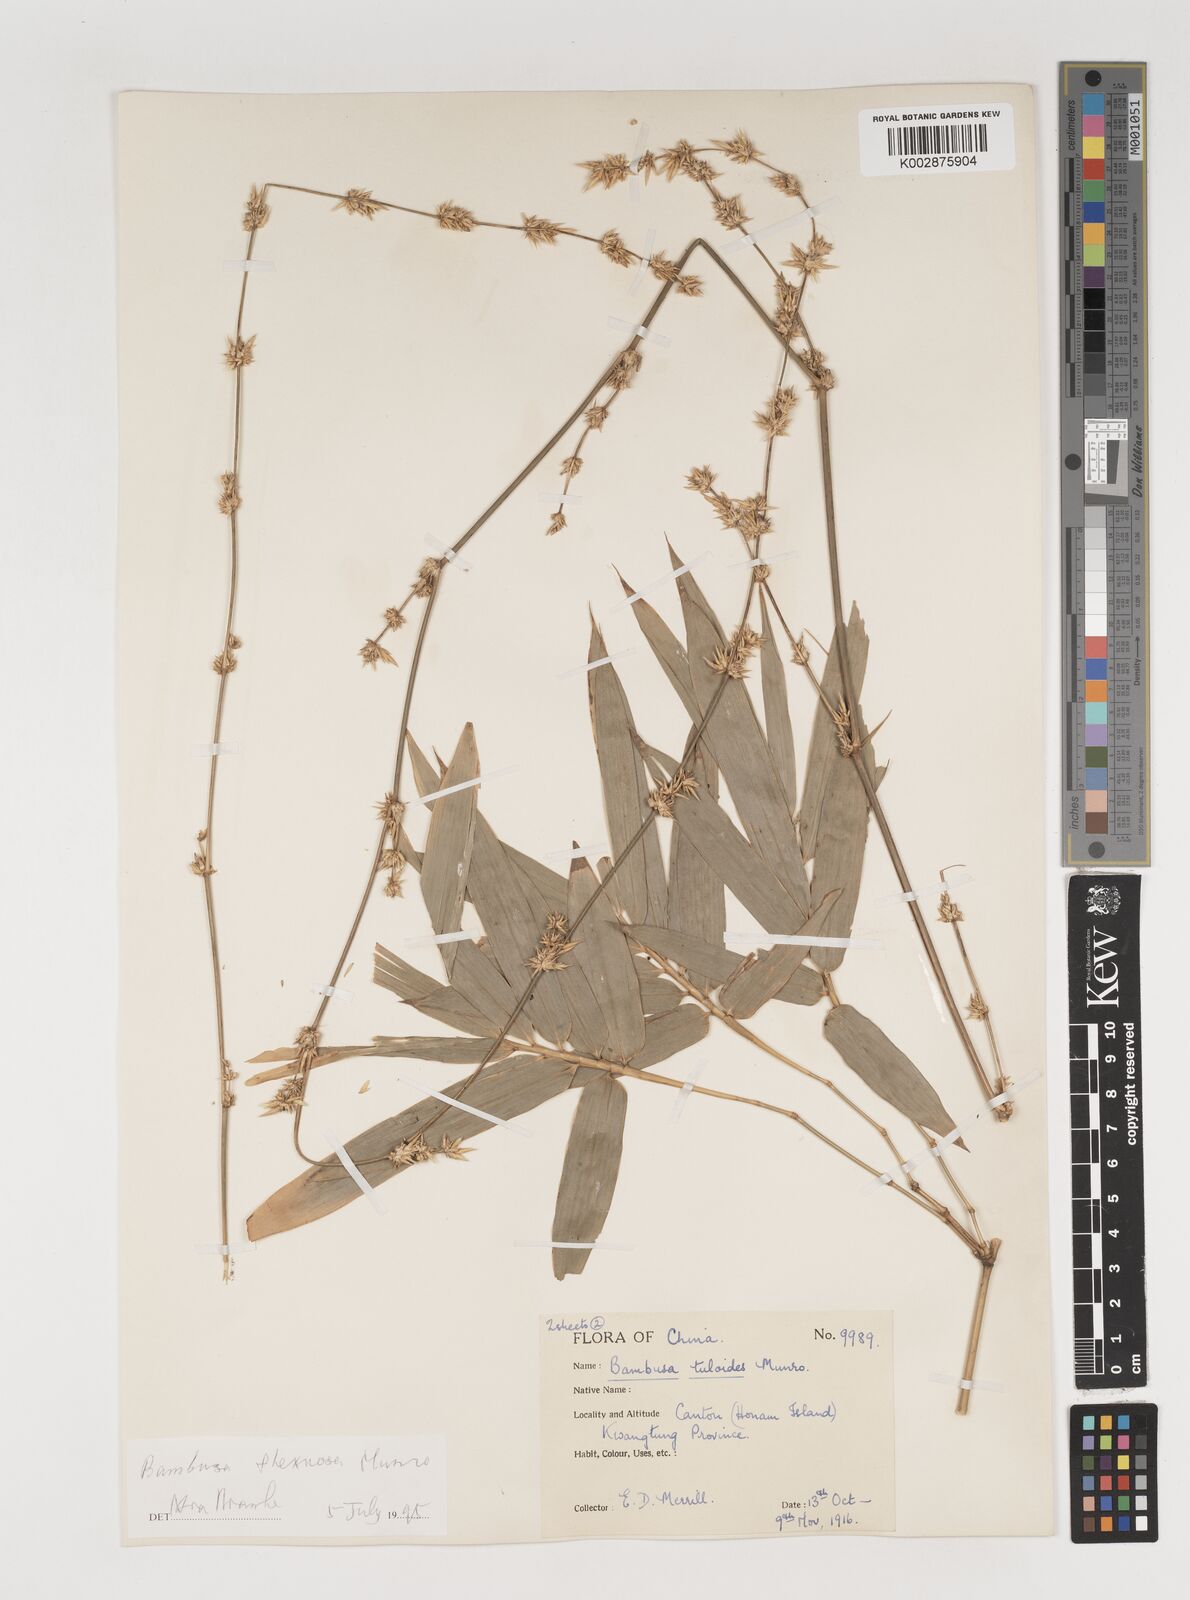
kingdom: Plantae
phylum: Tracheophyta
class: Liliopsida
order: Poales
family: Poaceae
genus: Bambusa
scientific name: Bambusa flexuosa
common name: Lesser thorny bamboo
